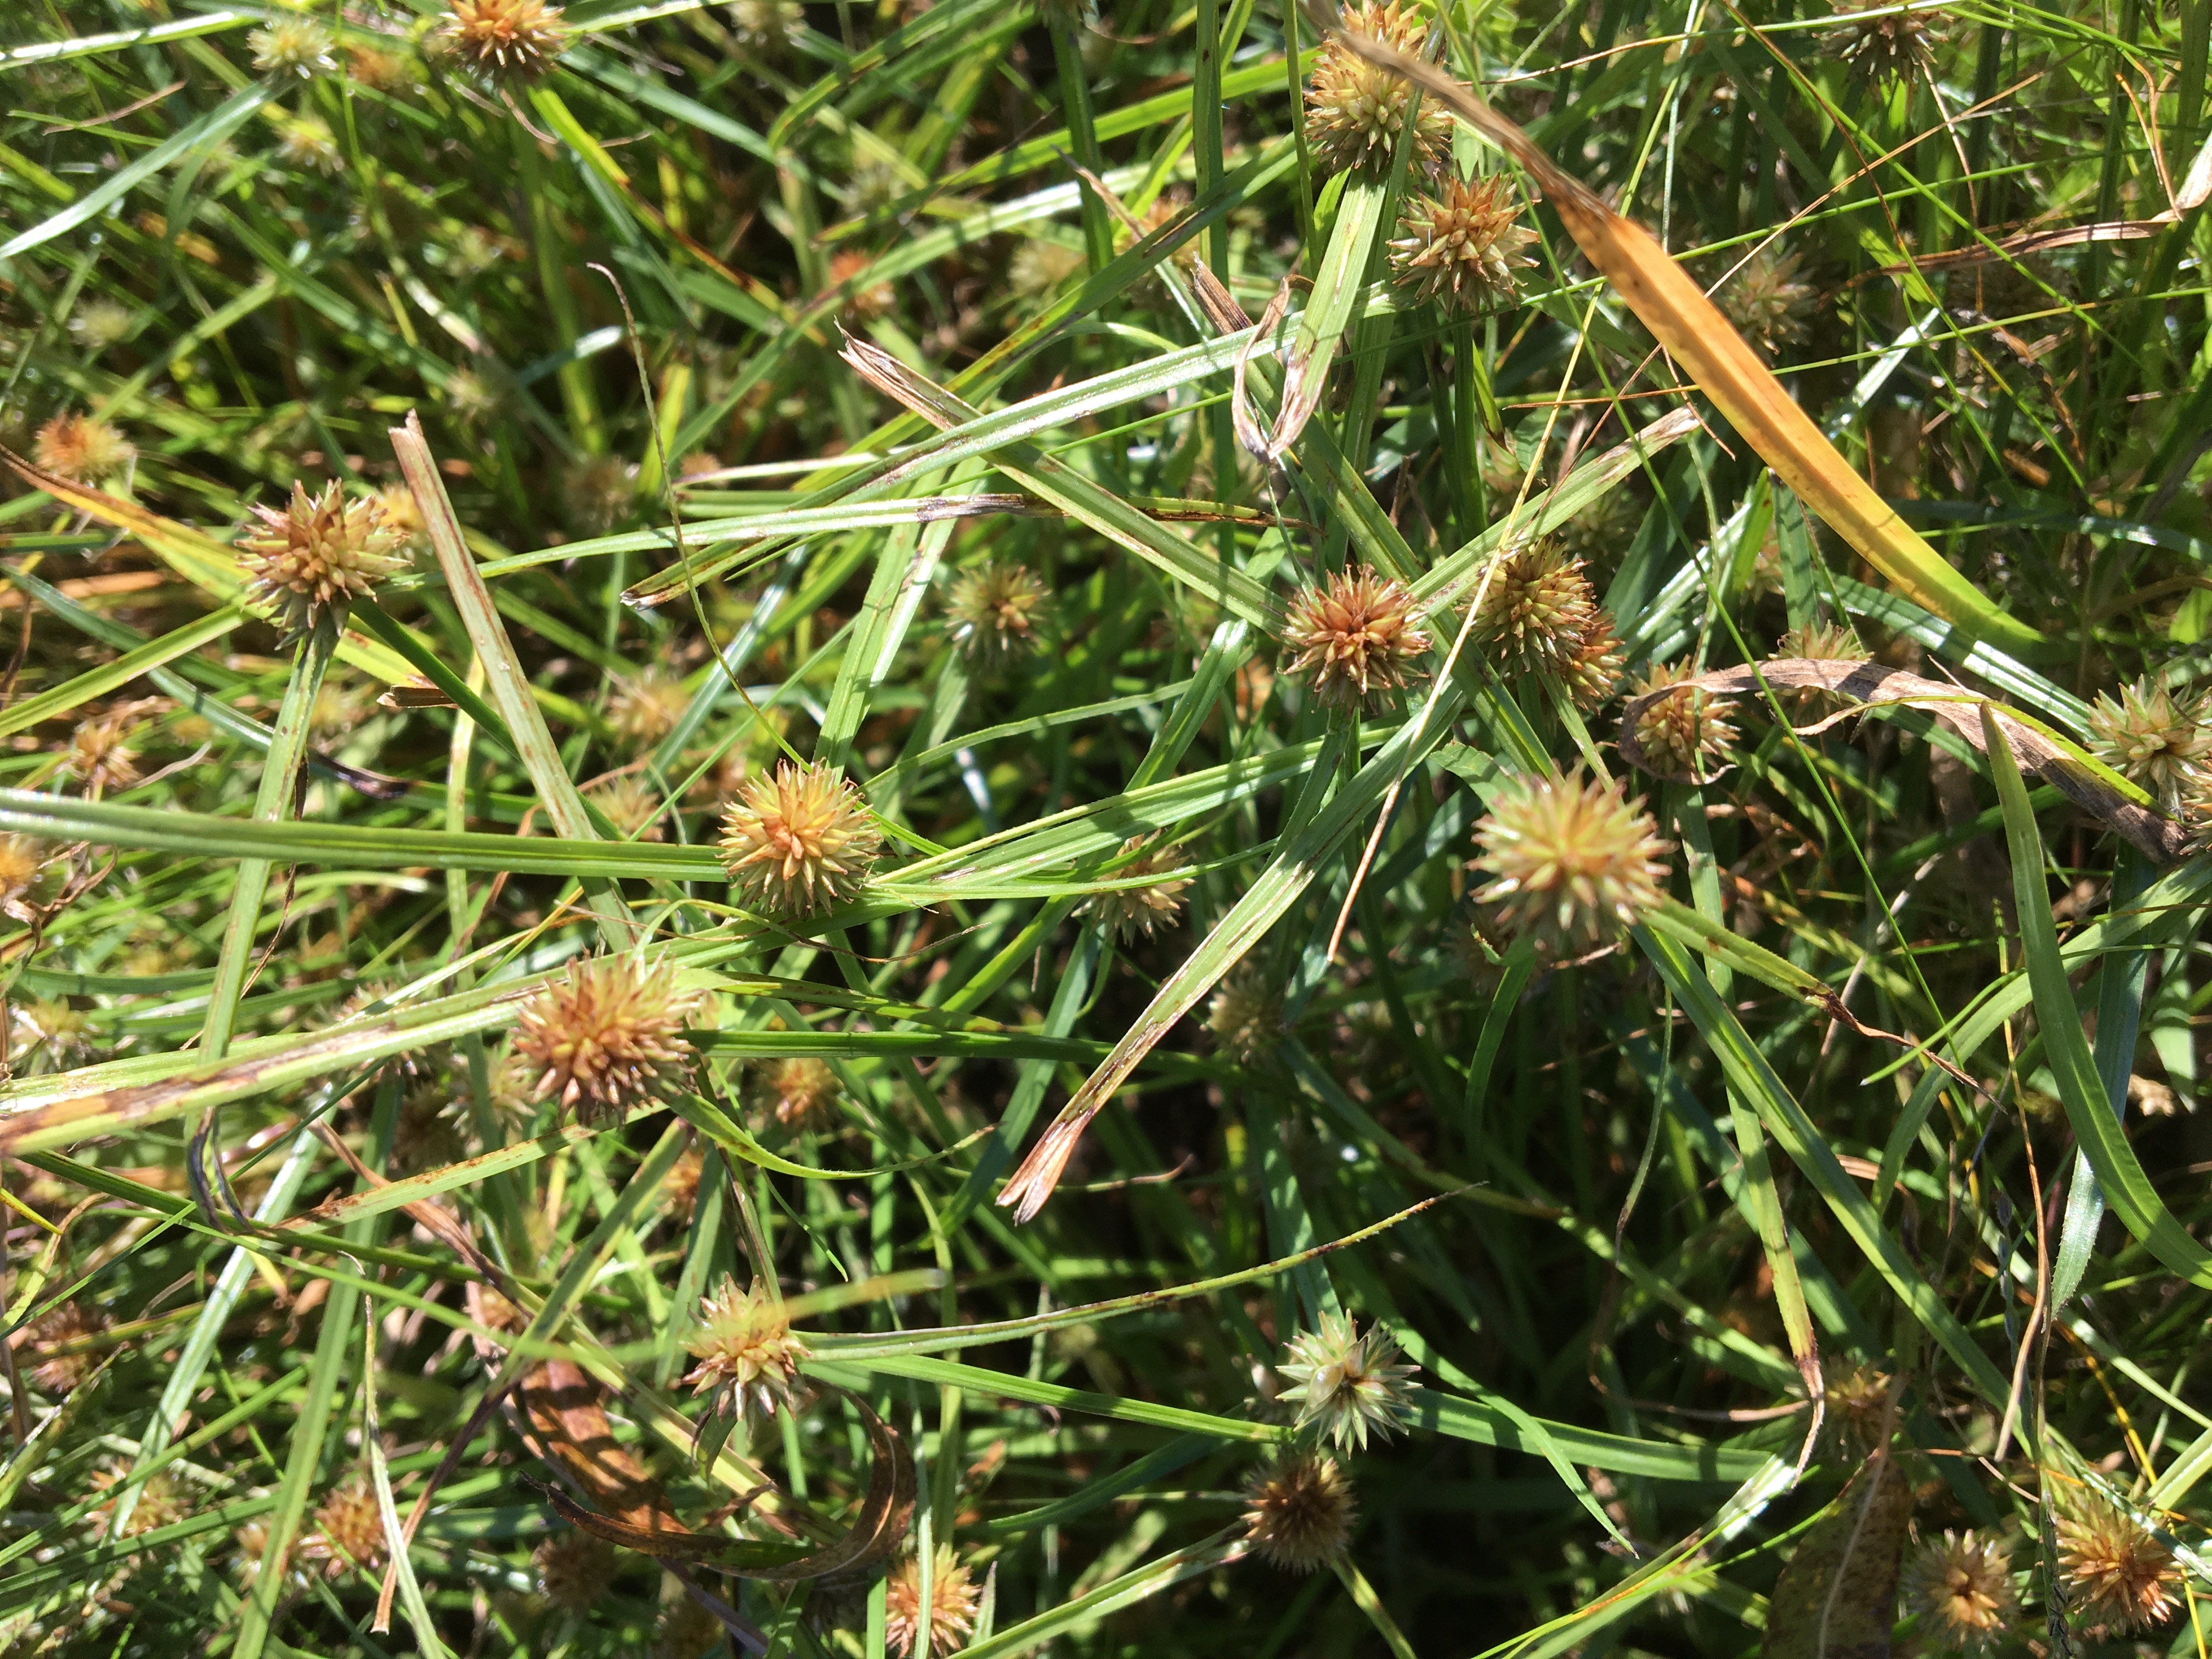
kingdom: Plantae
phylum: Tracheophyta
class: Liliopsida
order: Poales
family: Cyperaceae
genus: Cyperus
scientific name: Cyperus
